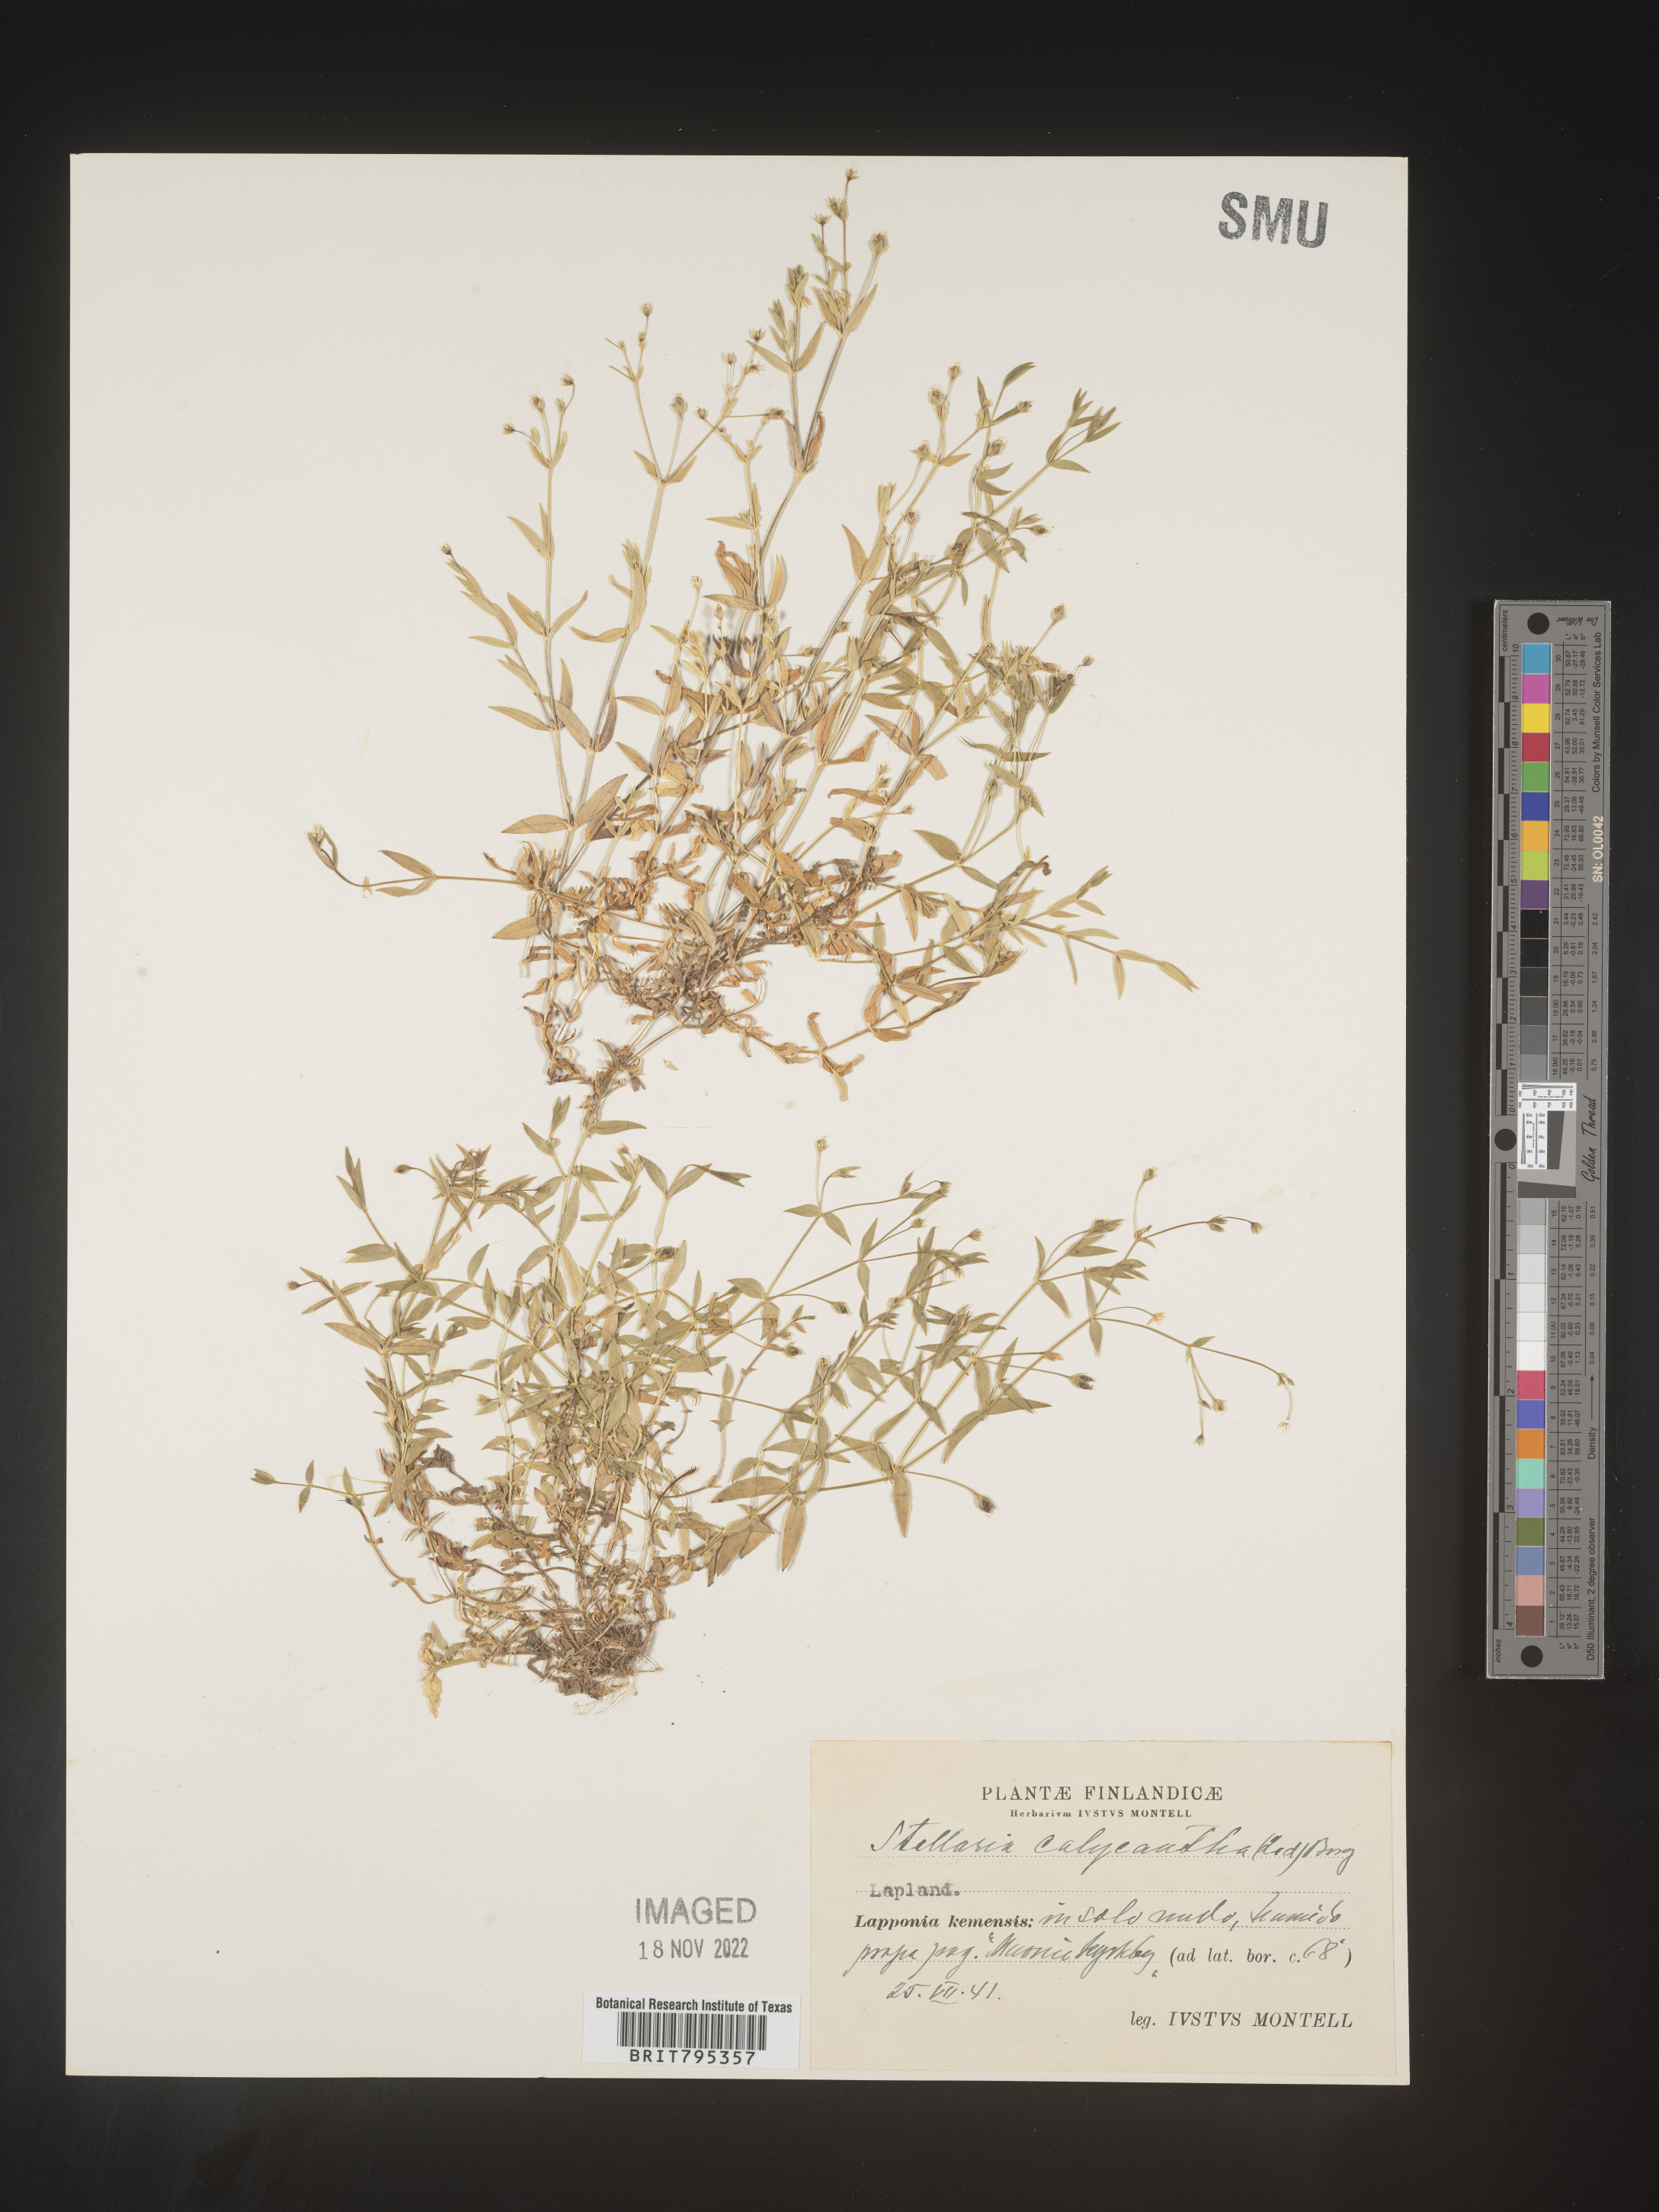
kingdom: Plantae
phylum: Tracheophyta
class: Magnoliopsida
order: Caryophyllales
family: Caryophyllaceae
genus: Stellaria
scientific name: Stellaria
